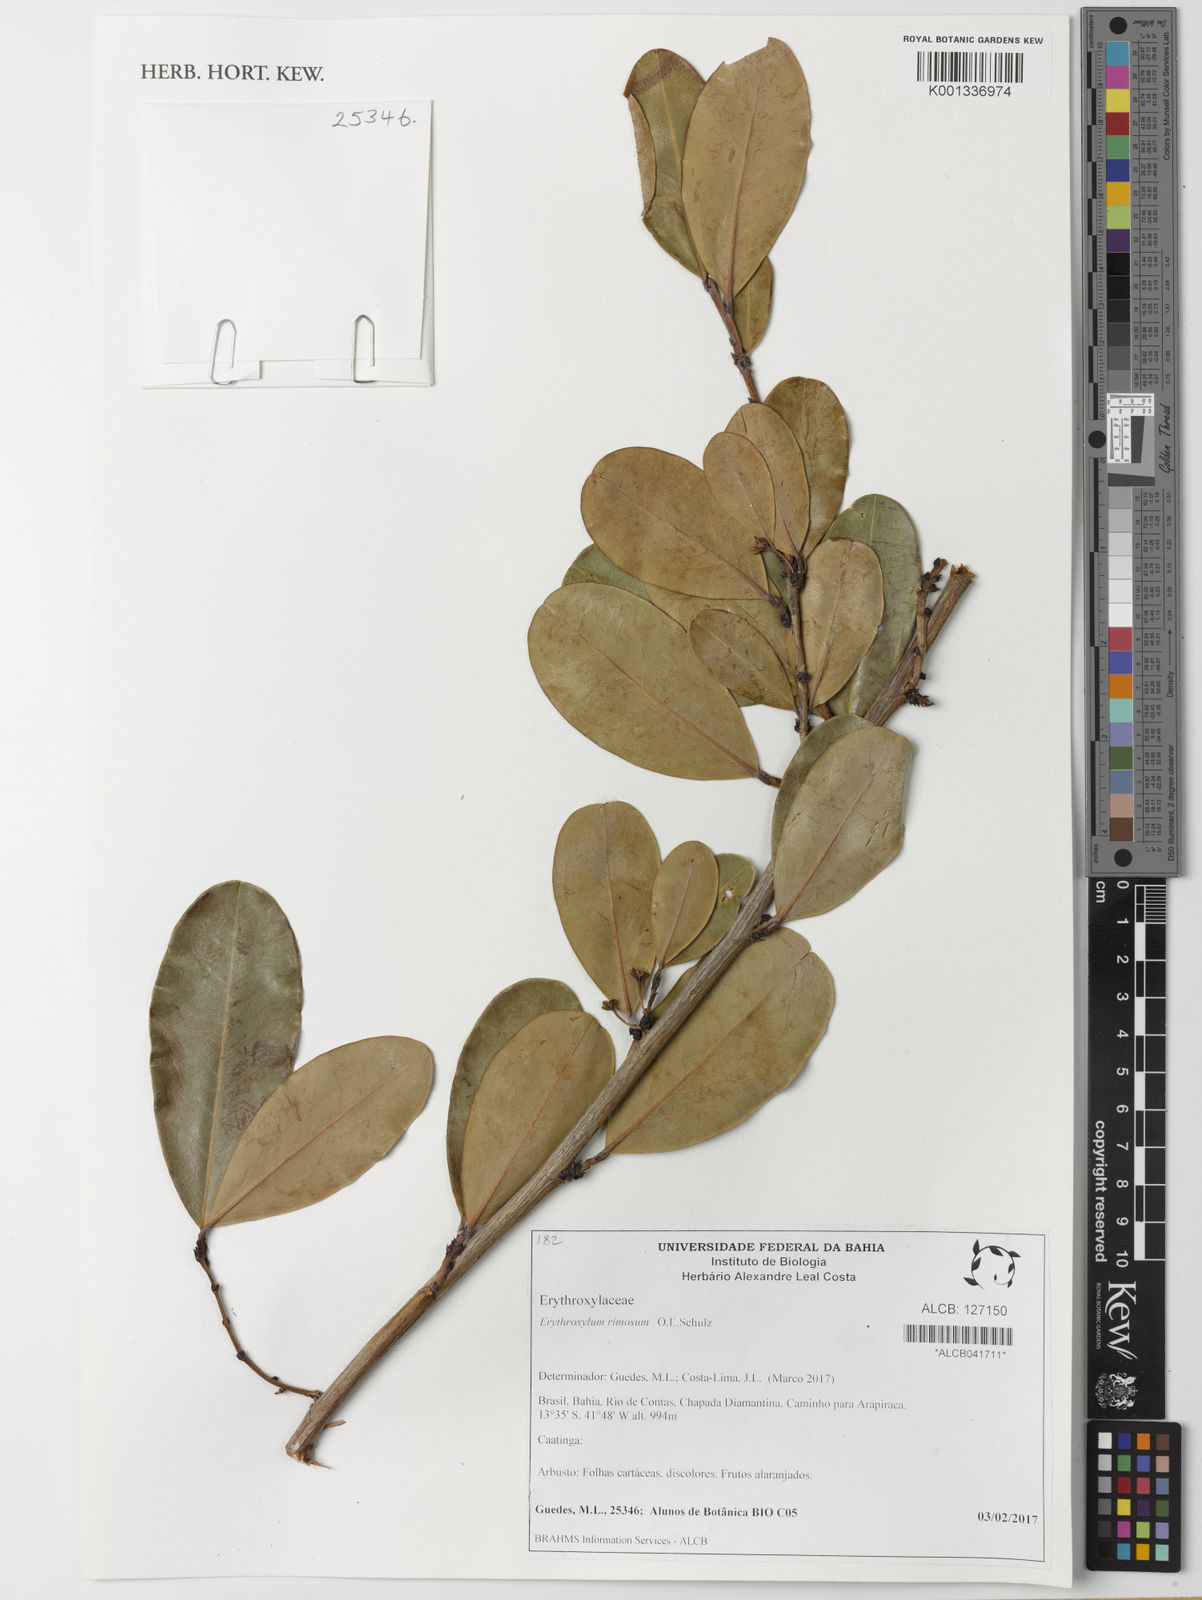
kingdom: Plantae
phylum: Tracheophyta
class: Magnoliopsida
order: Malpighiales
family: Erythroxylaceae
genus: Erythroxylum
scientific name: Erythroxylum rimosum
